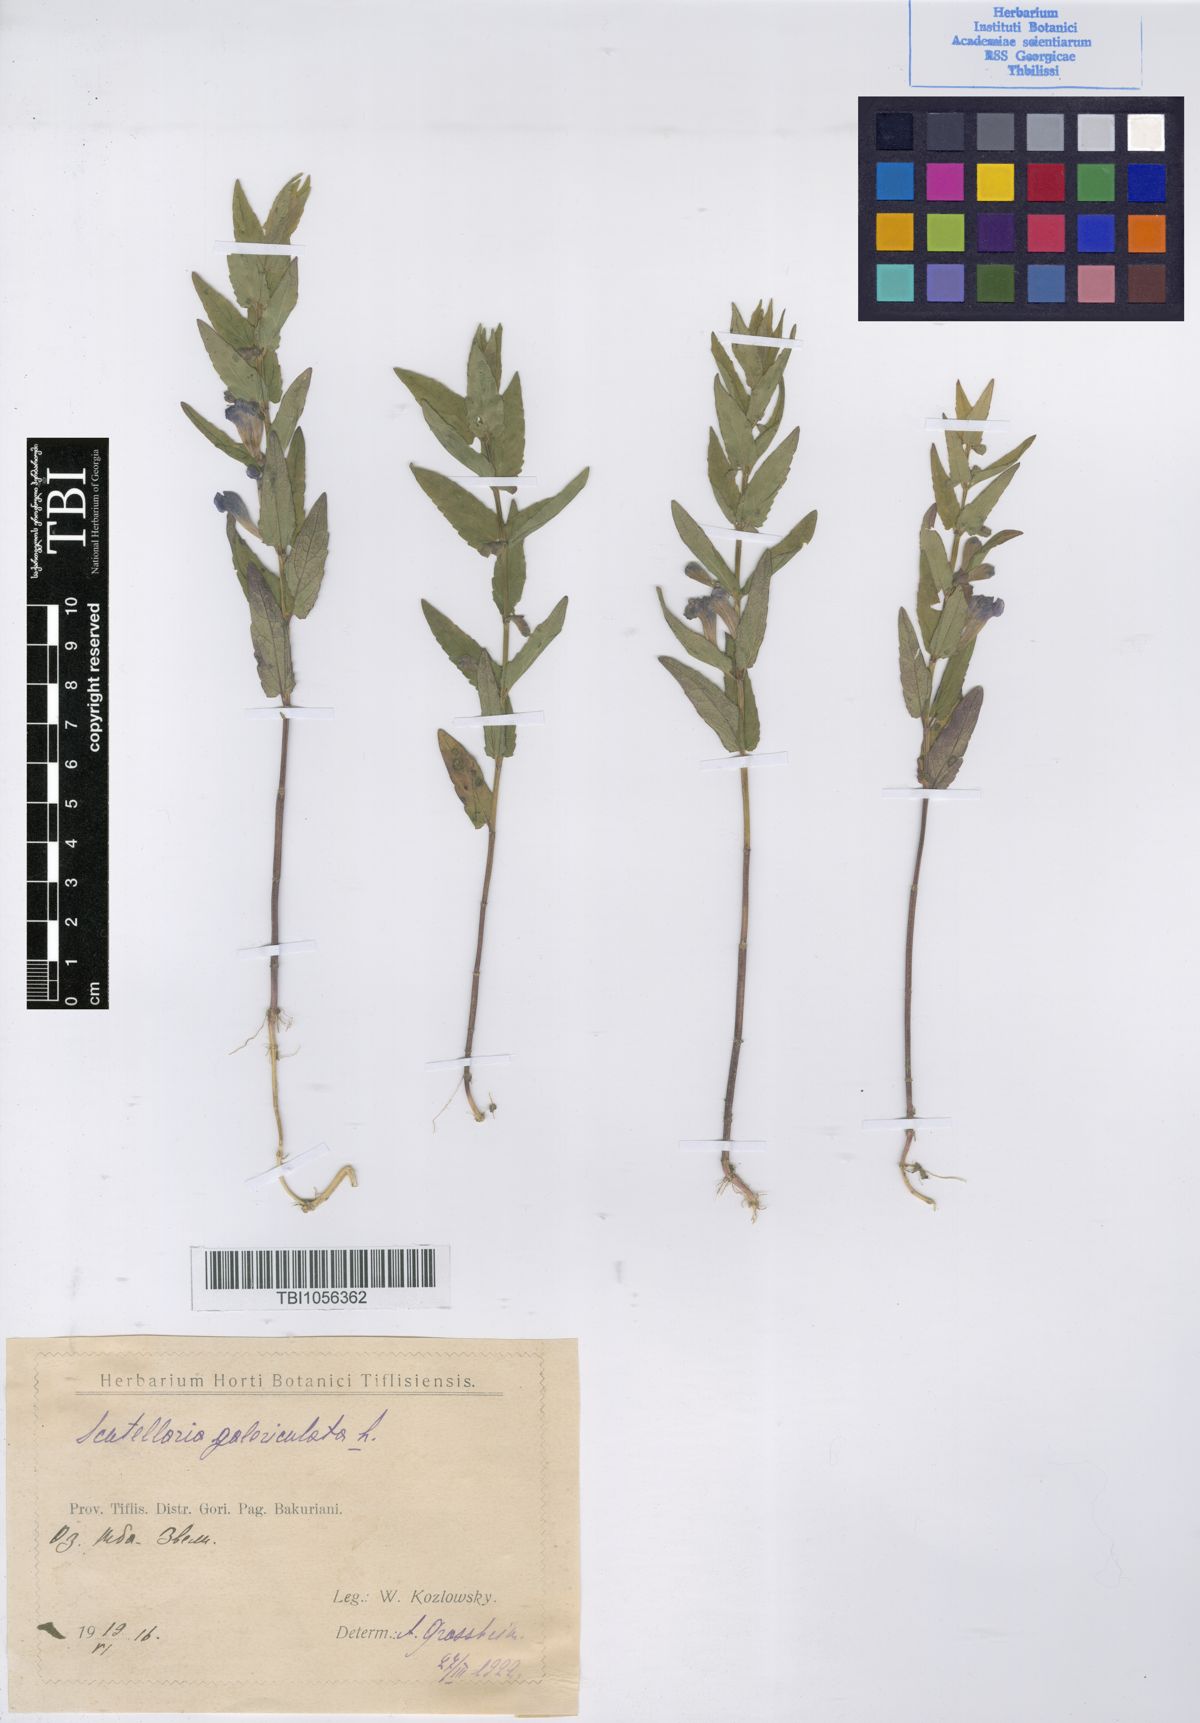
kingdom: Plantae
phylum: Tracheophyta
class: Magnoliopsida
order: Lamiales
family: Lamiaceae
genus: Scutellaria
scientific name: Scutellaria galericulata
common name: Skullcap
